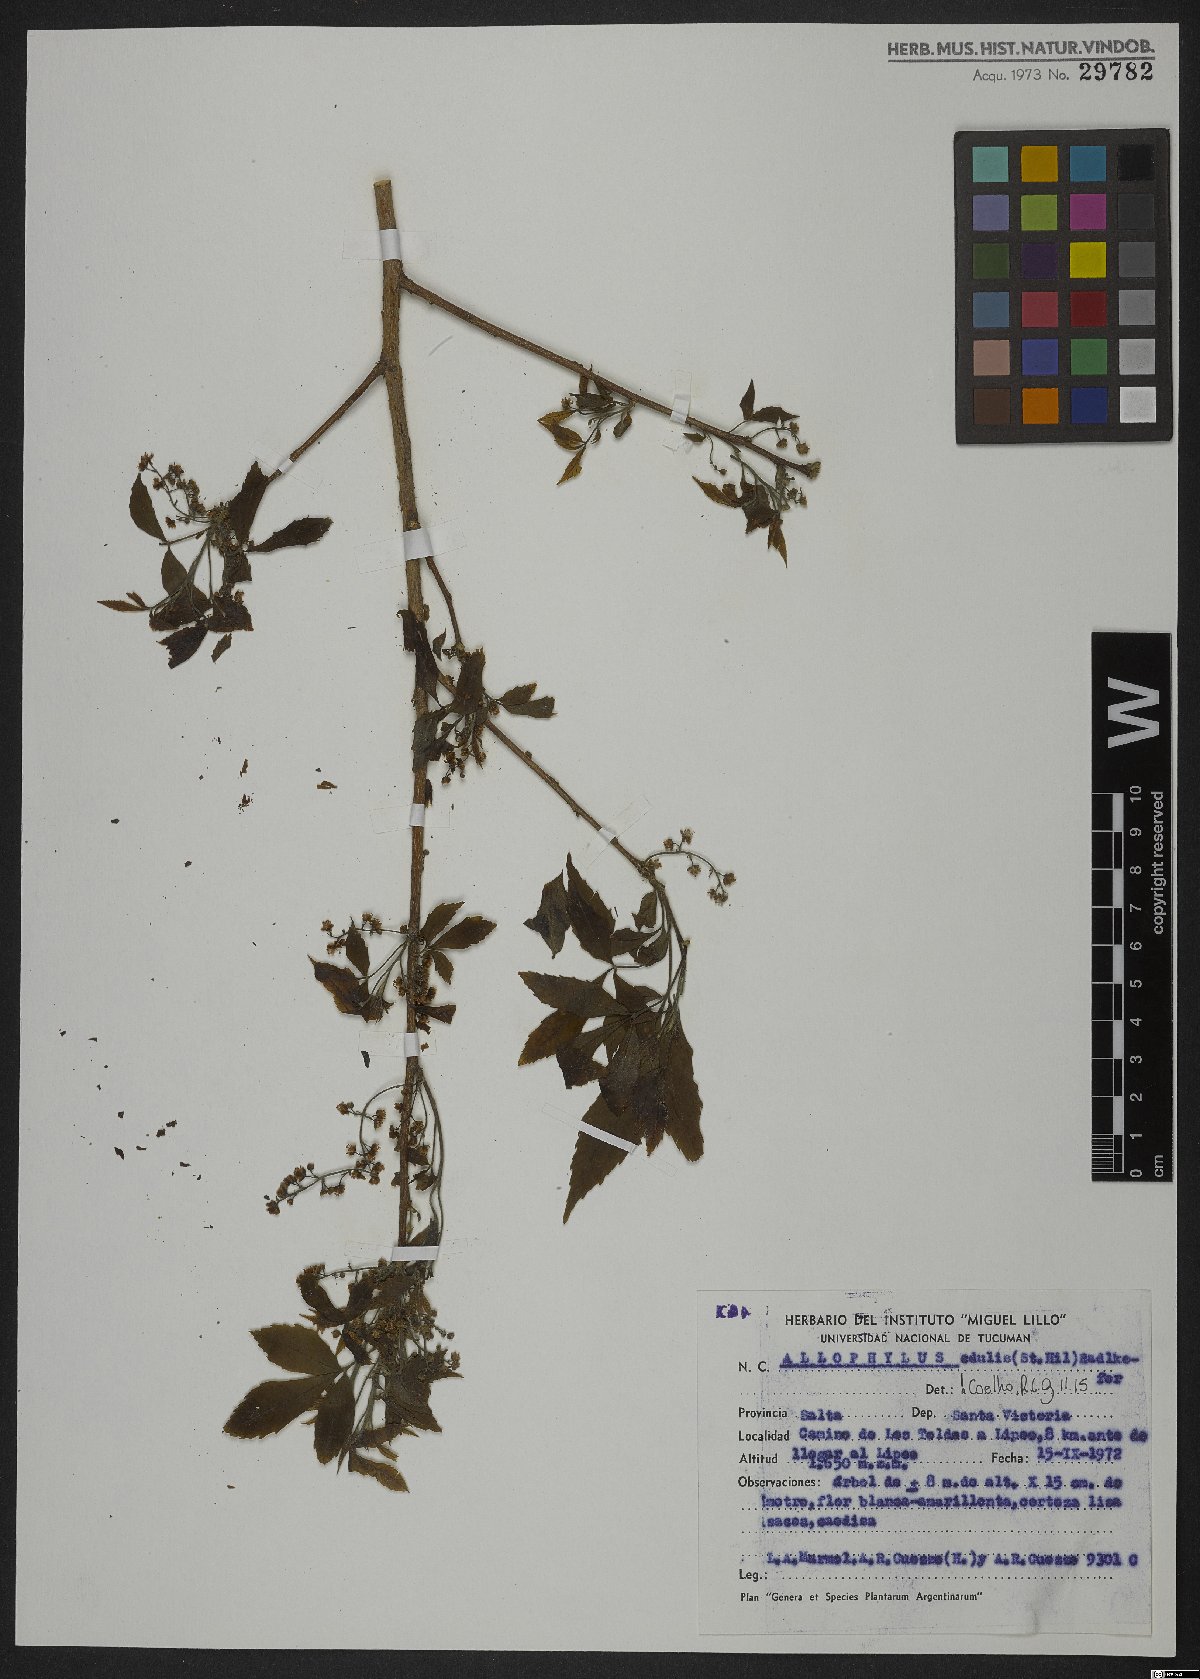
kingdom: Plantae
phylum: Tracheophyta
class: Magnoliopsida
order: Sapindales
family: Sapindaceae
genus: Allophylus
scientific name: Allophylus edulis
